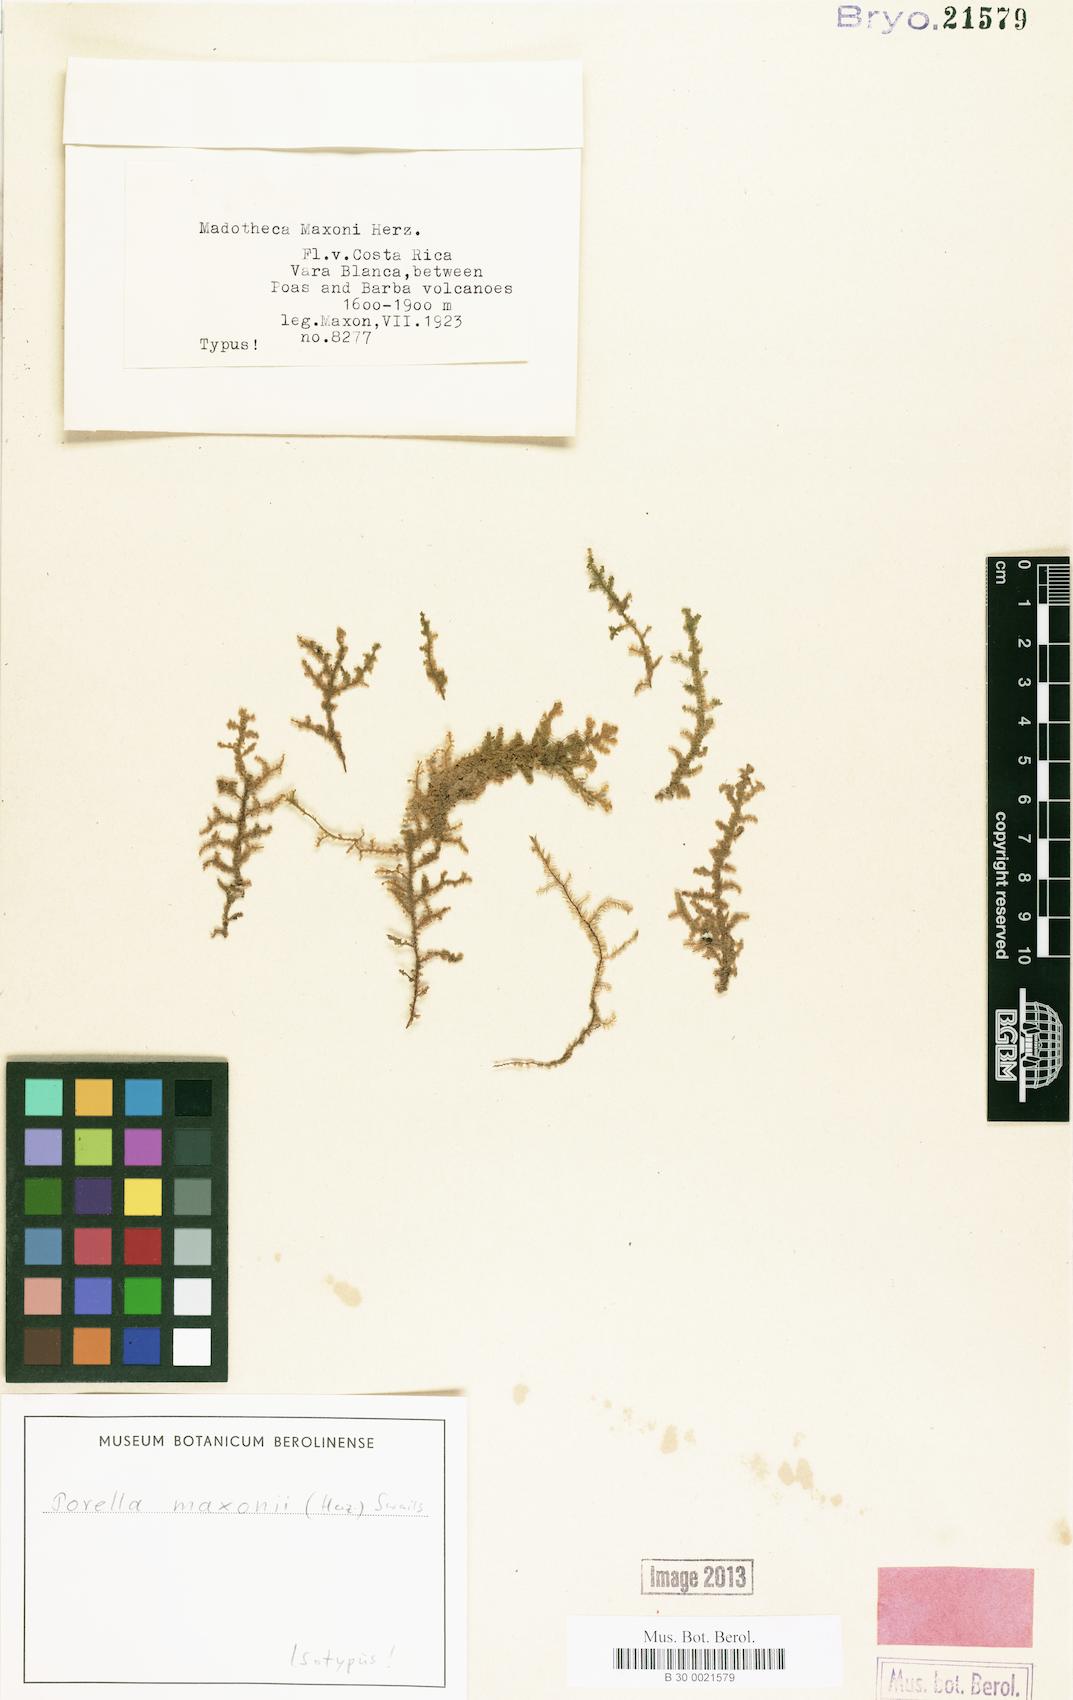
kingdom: Plantae
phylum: Marchantiophyta
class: Jungermanniopsida
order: Porellales
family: Porellaceae
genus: Porella
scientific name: Porella leiboldii
